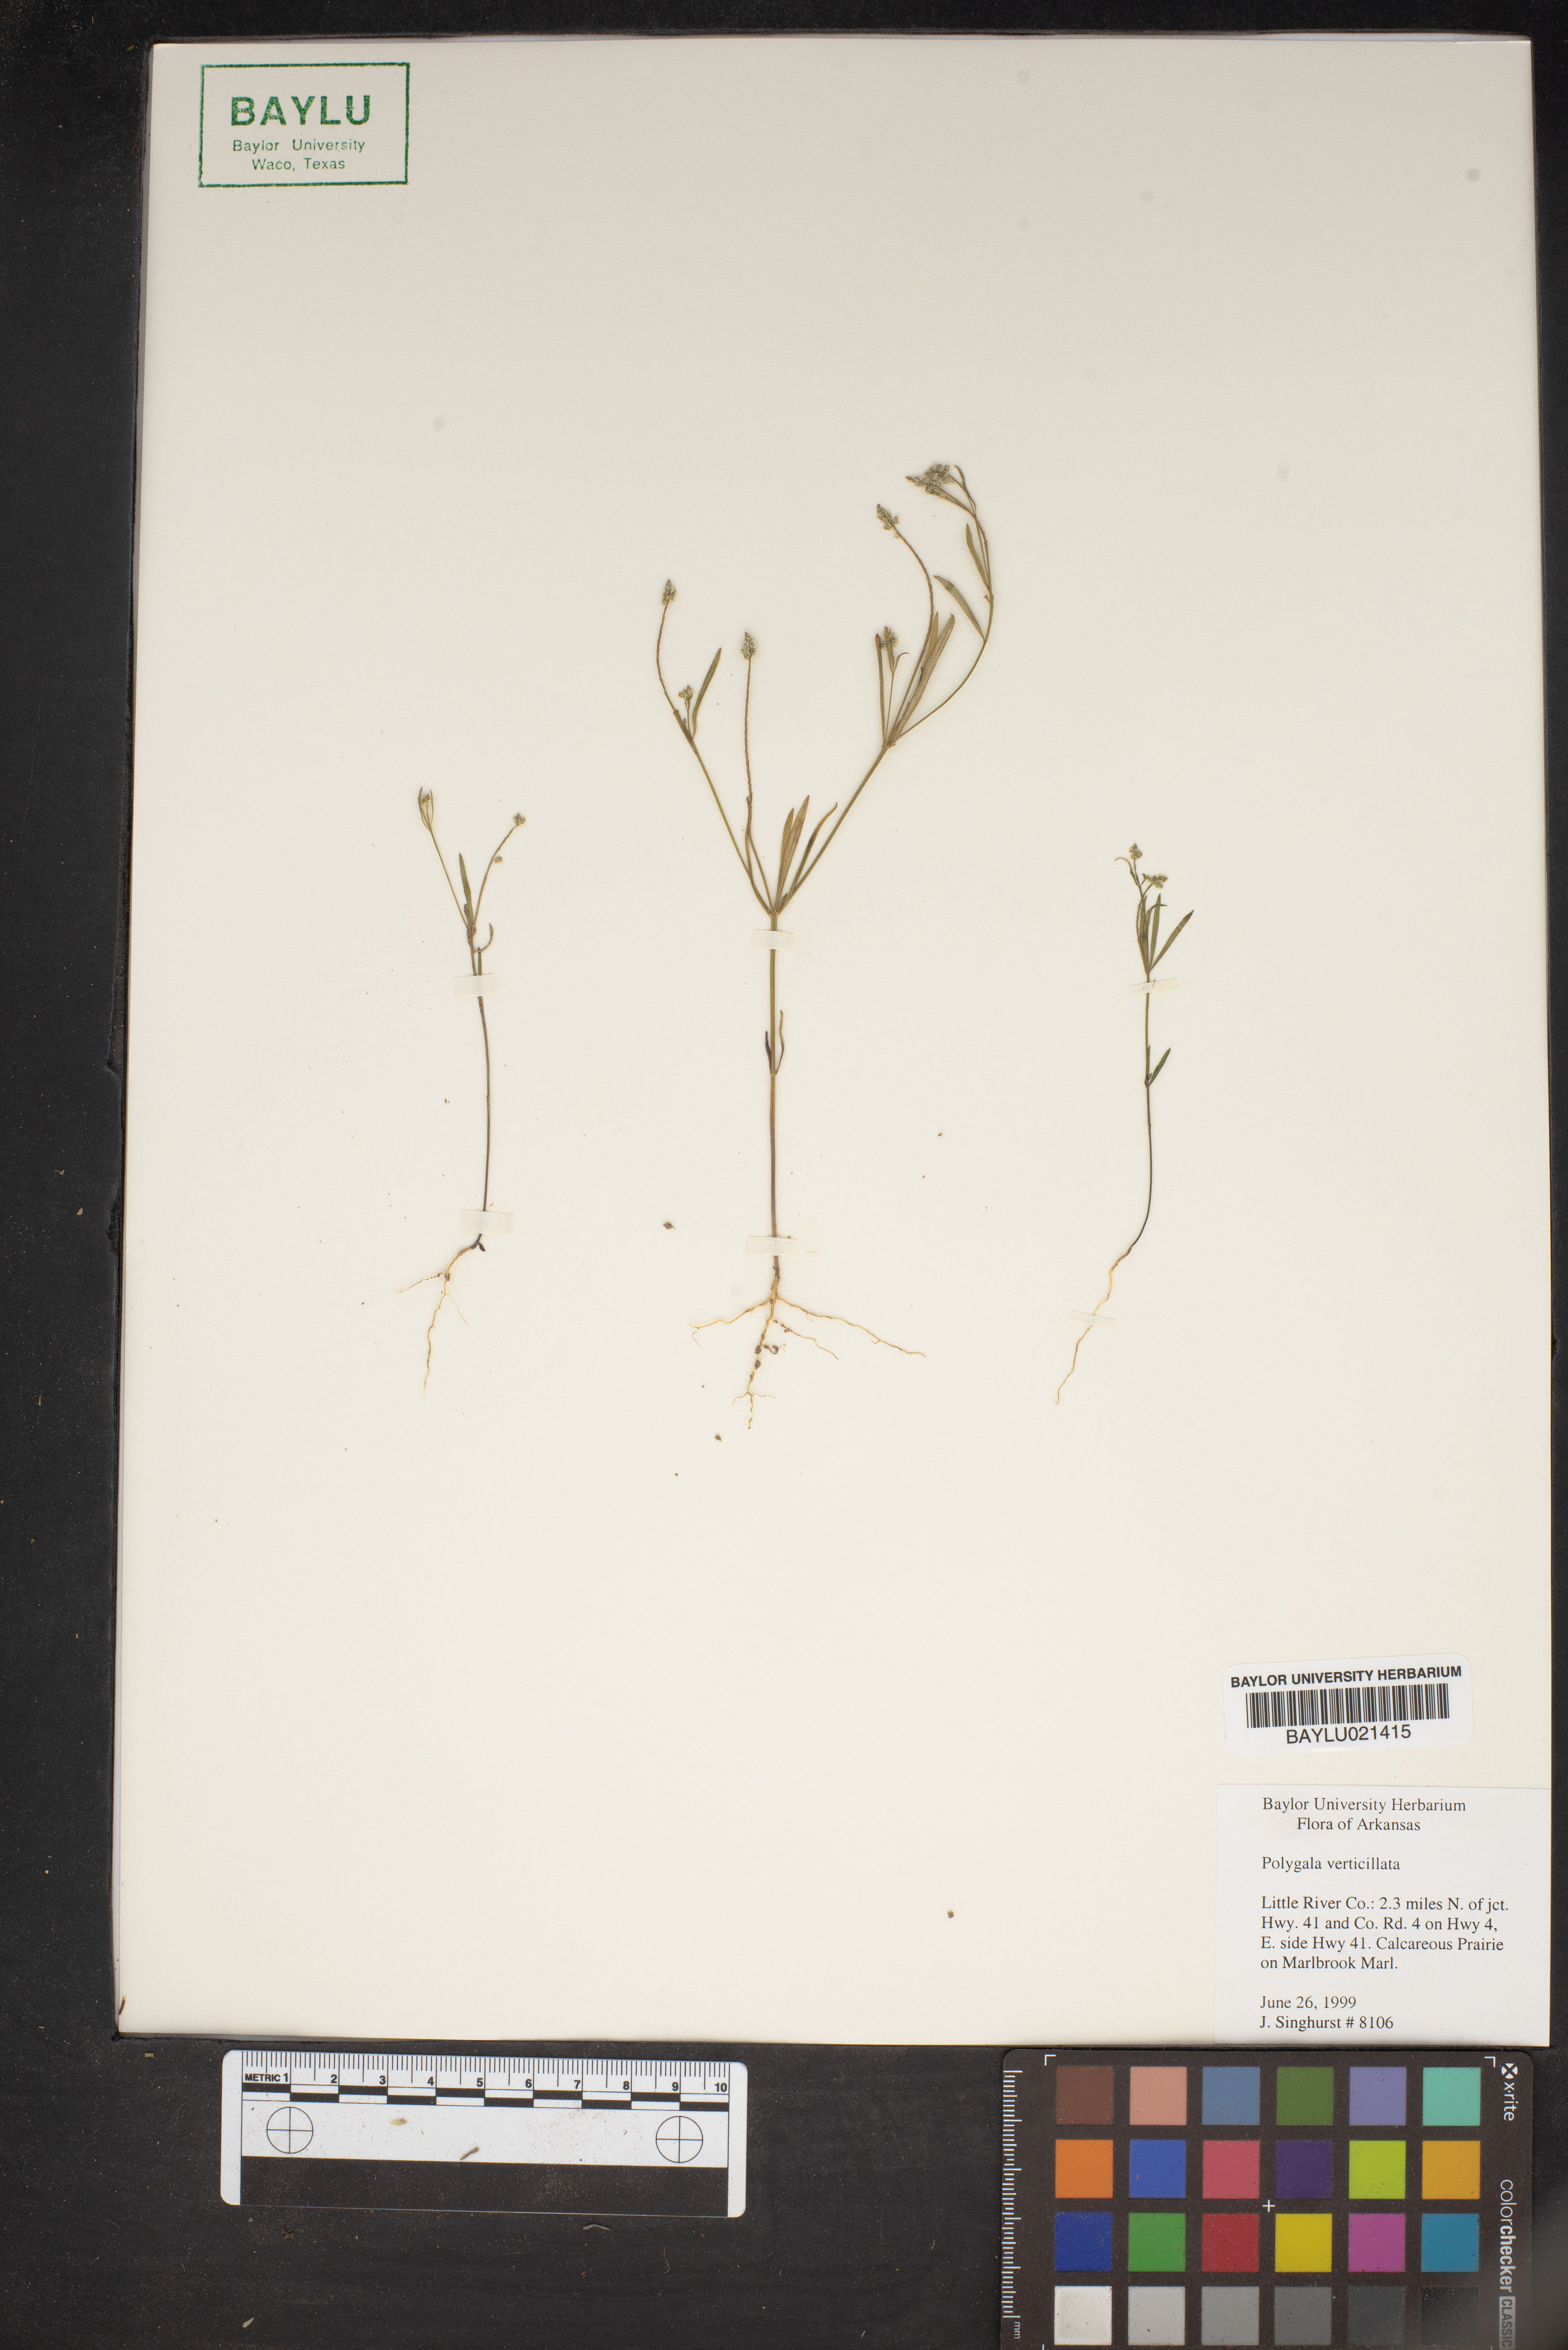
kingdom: Plantae
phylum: Tracheophyta
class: Magnoliopsida
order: Fabales
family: Polygalaceae
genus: Polygala
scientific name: Polygala verticillata
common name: Whorl milkwort
